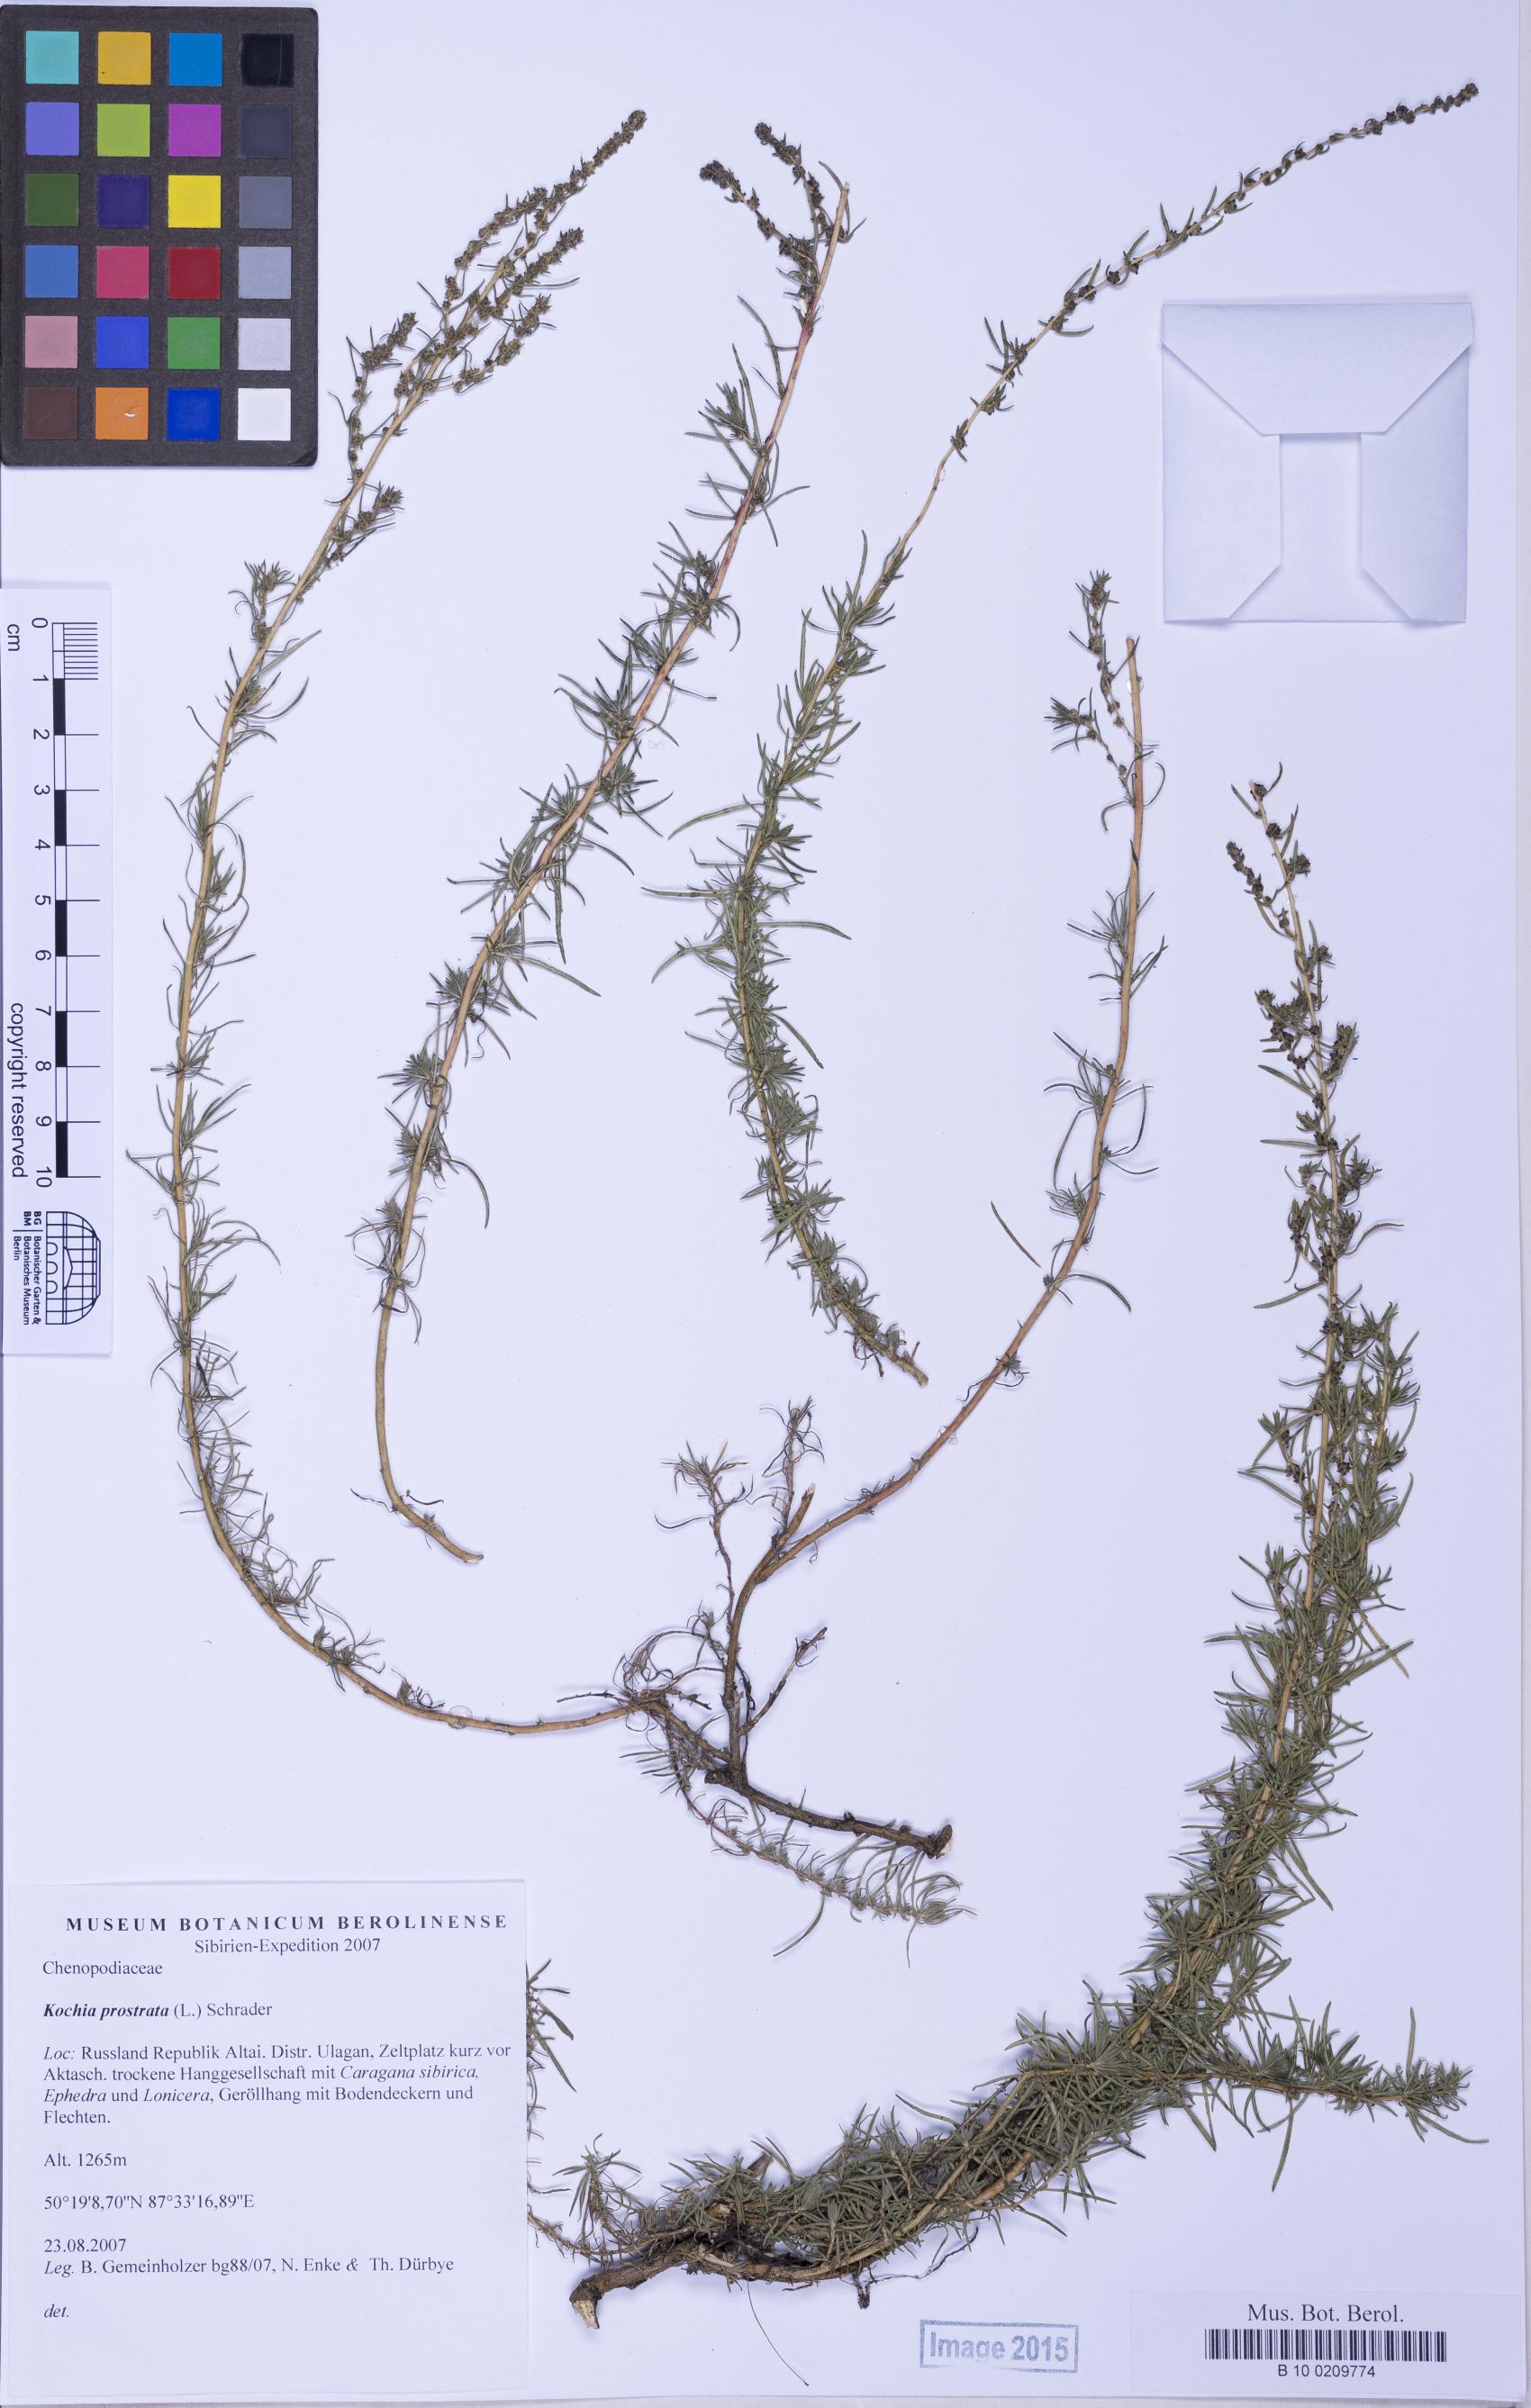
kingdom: Plantae
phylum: Tracheophyta
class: Magnoliopsida
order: Caryophyllales
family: Amaranthaceae
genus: Bassia
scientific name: Bassia prostrata
